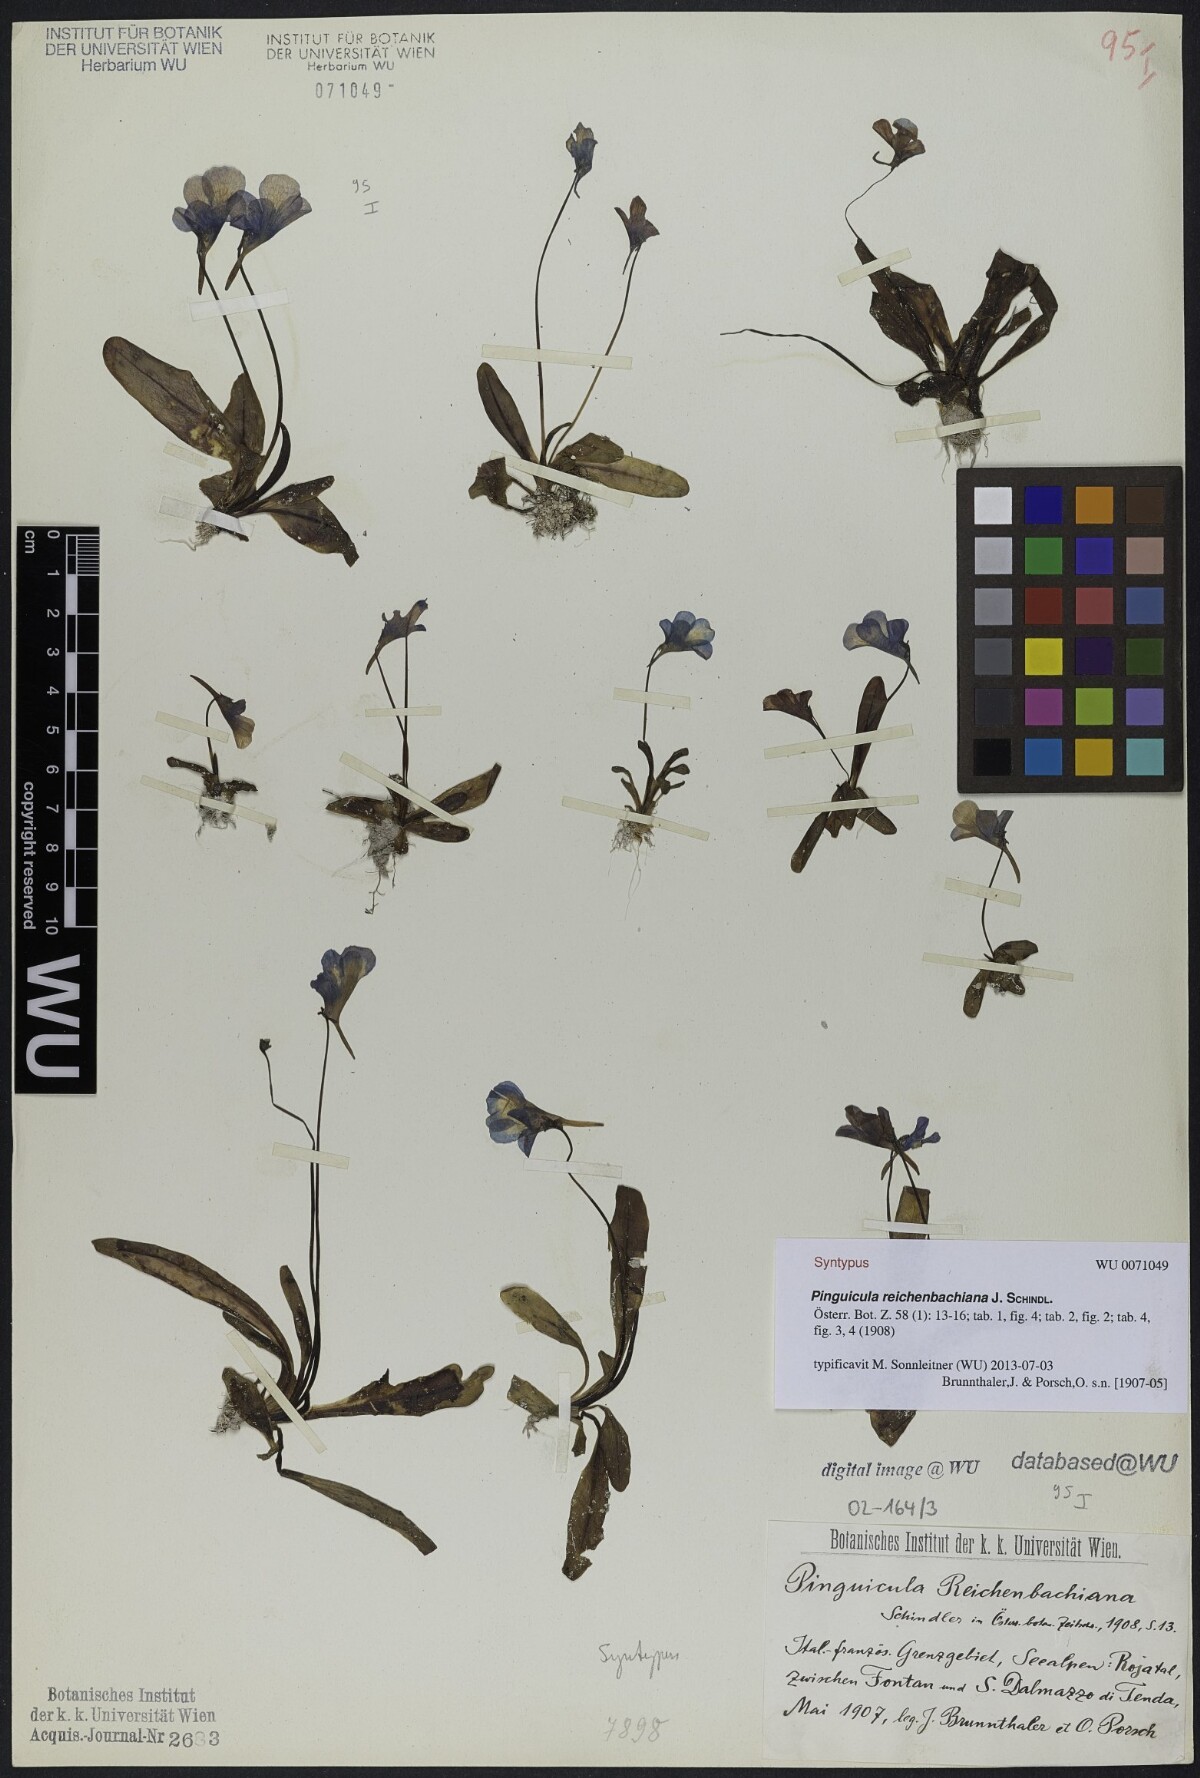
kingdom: Plantae
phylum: Tracheophyta
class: Magnoliopsida
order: Lamiales
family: Lentibulariaceae
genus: Pinguicula
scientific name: Pinguicula longifolia
